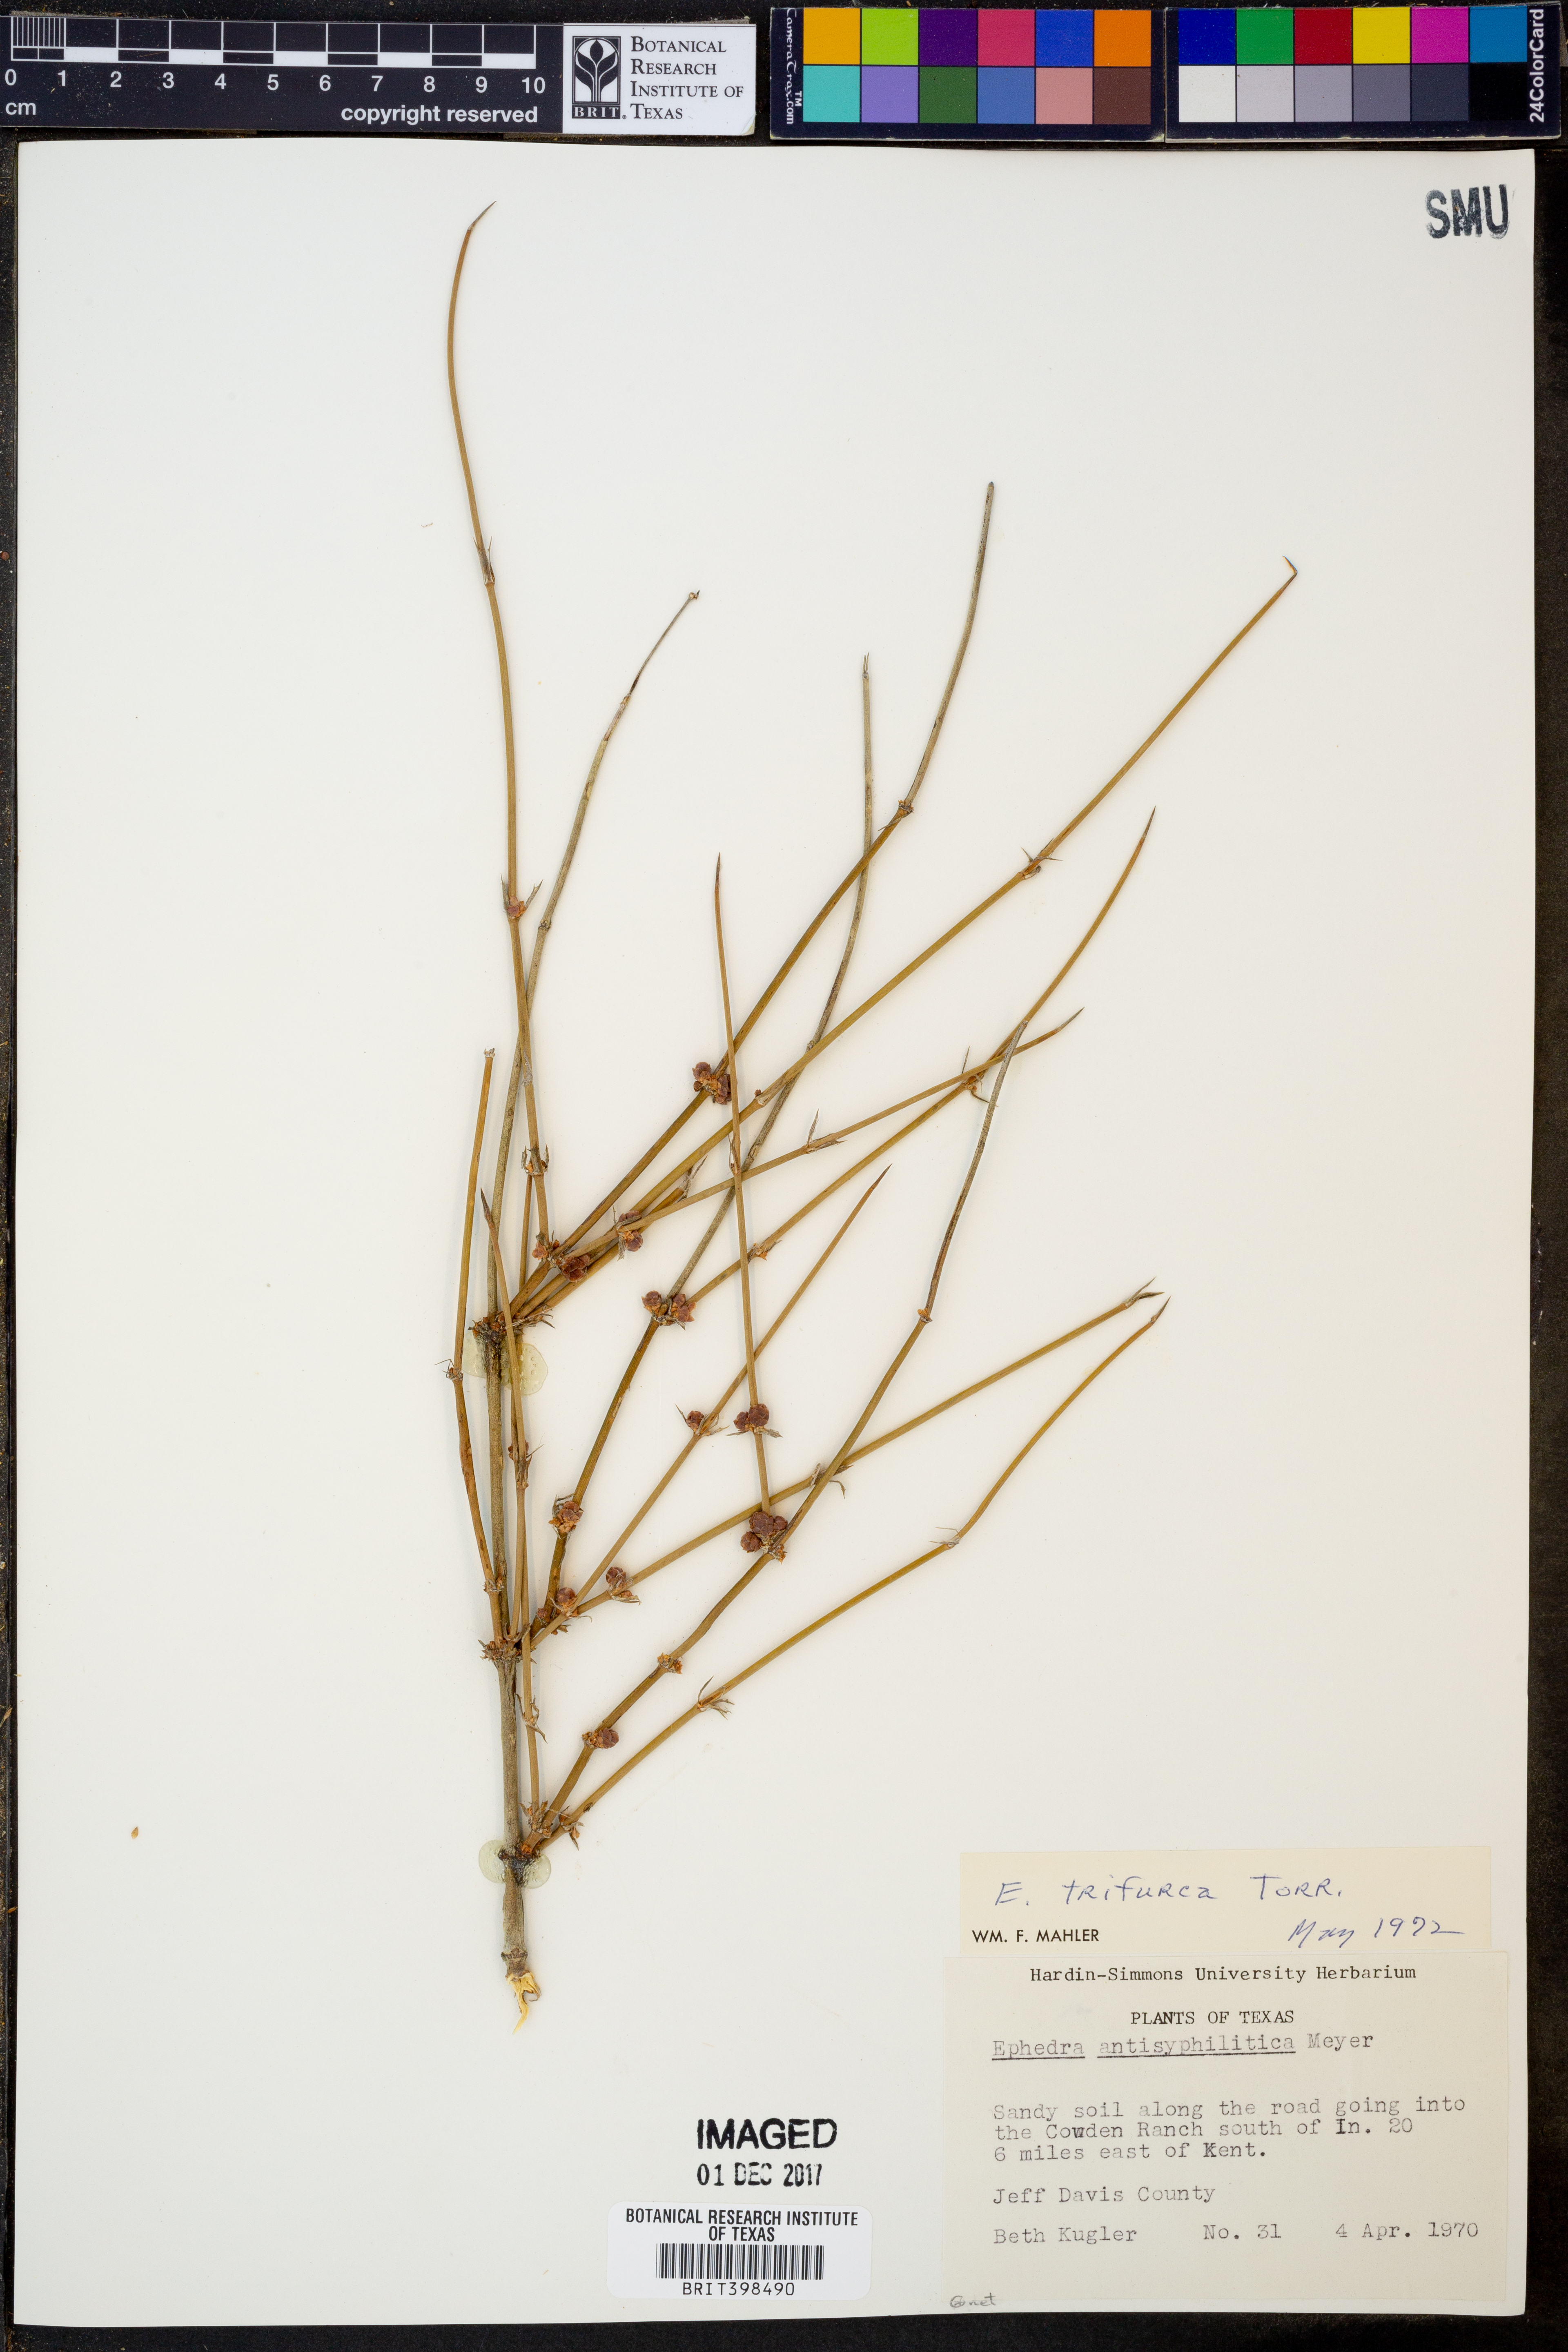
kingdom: Plantae
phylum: Tracheophyta
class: Gnetopsida
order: Ephedrales
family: Ephedraceae
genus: Ephedra
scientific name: Ephedra trifurca
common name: Mexican-tea
